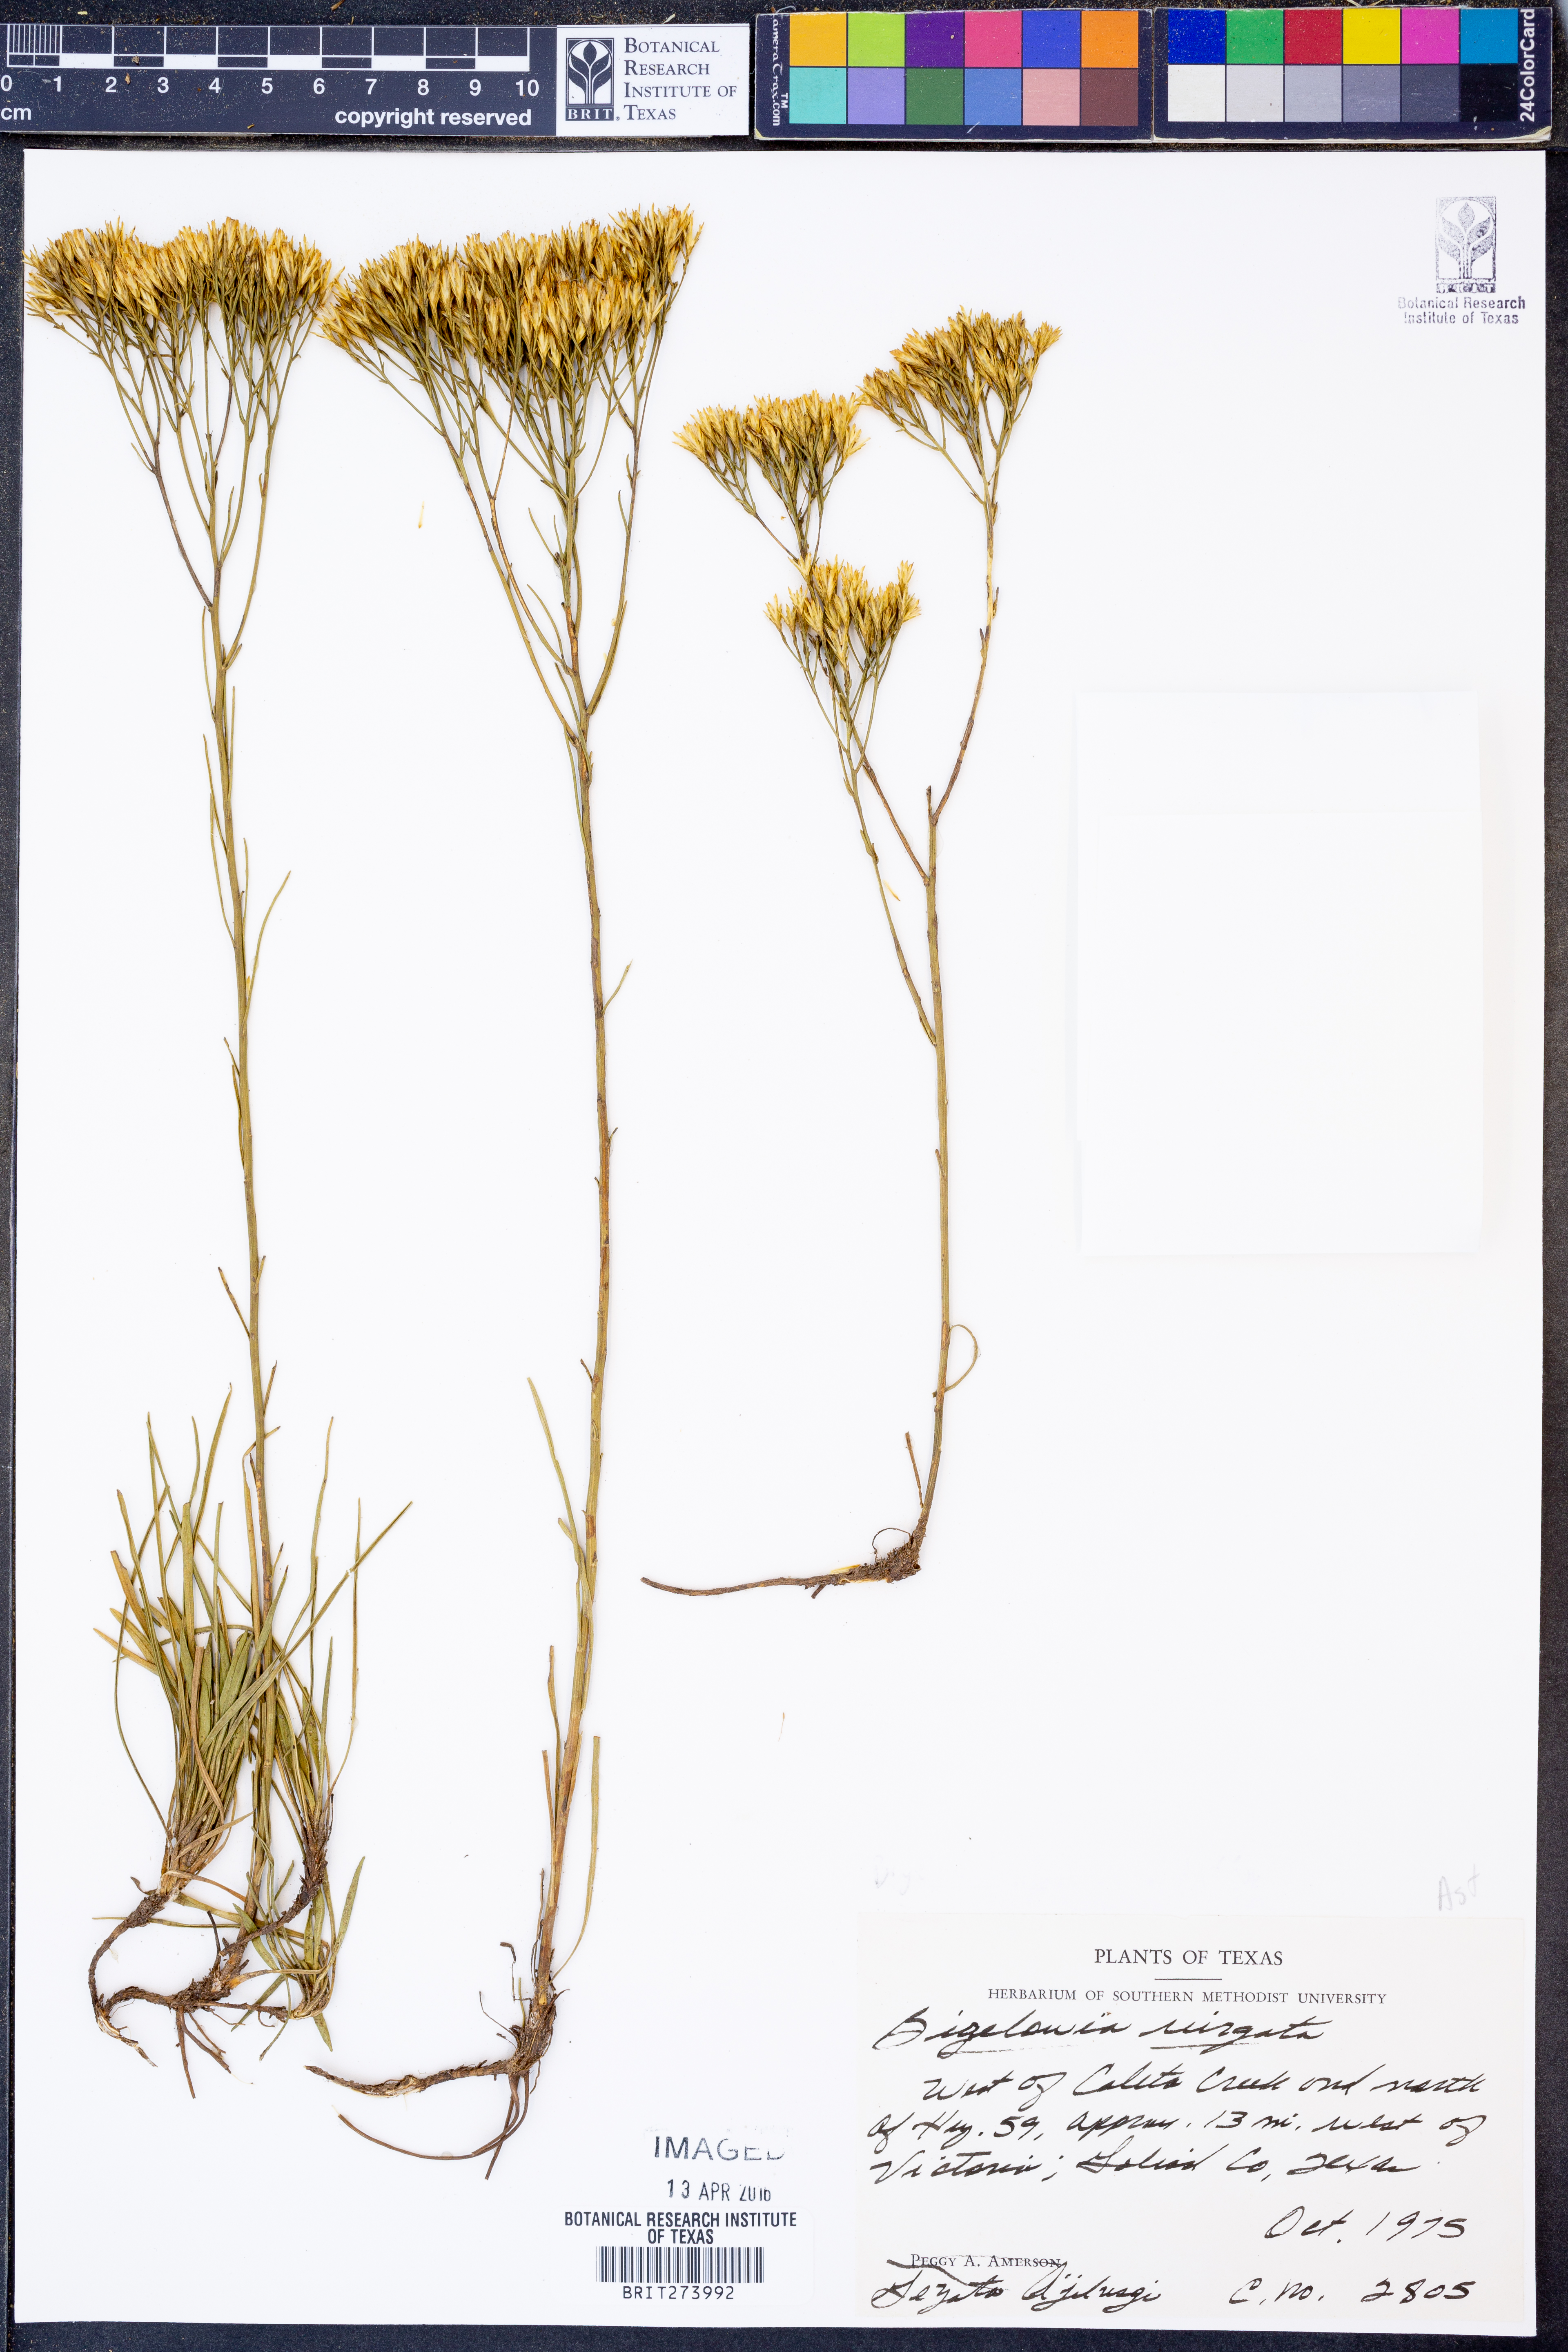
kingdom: Plantae
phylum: Tracheophyta
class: Magnoliopsida
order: Asterales
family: Asteraceae
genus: Bigelowia
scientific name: Bigelowia nudata
